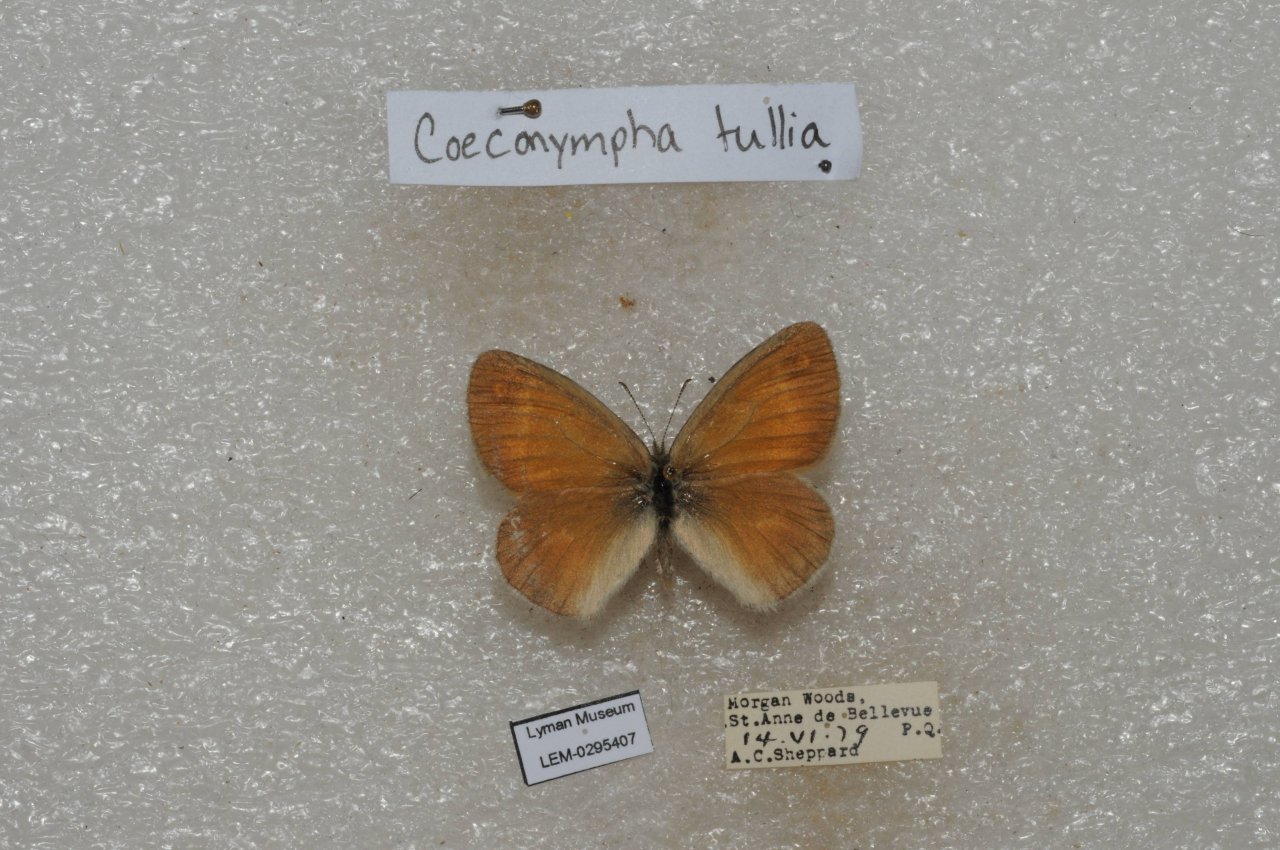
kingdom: Animalia
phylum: Arthropoda
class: Insecta
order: Lepidoptera
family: Nymphalidae
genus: Coenonympha
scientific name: Coenonympha tullia
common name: Large Heath
